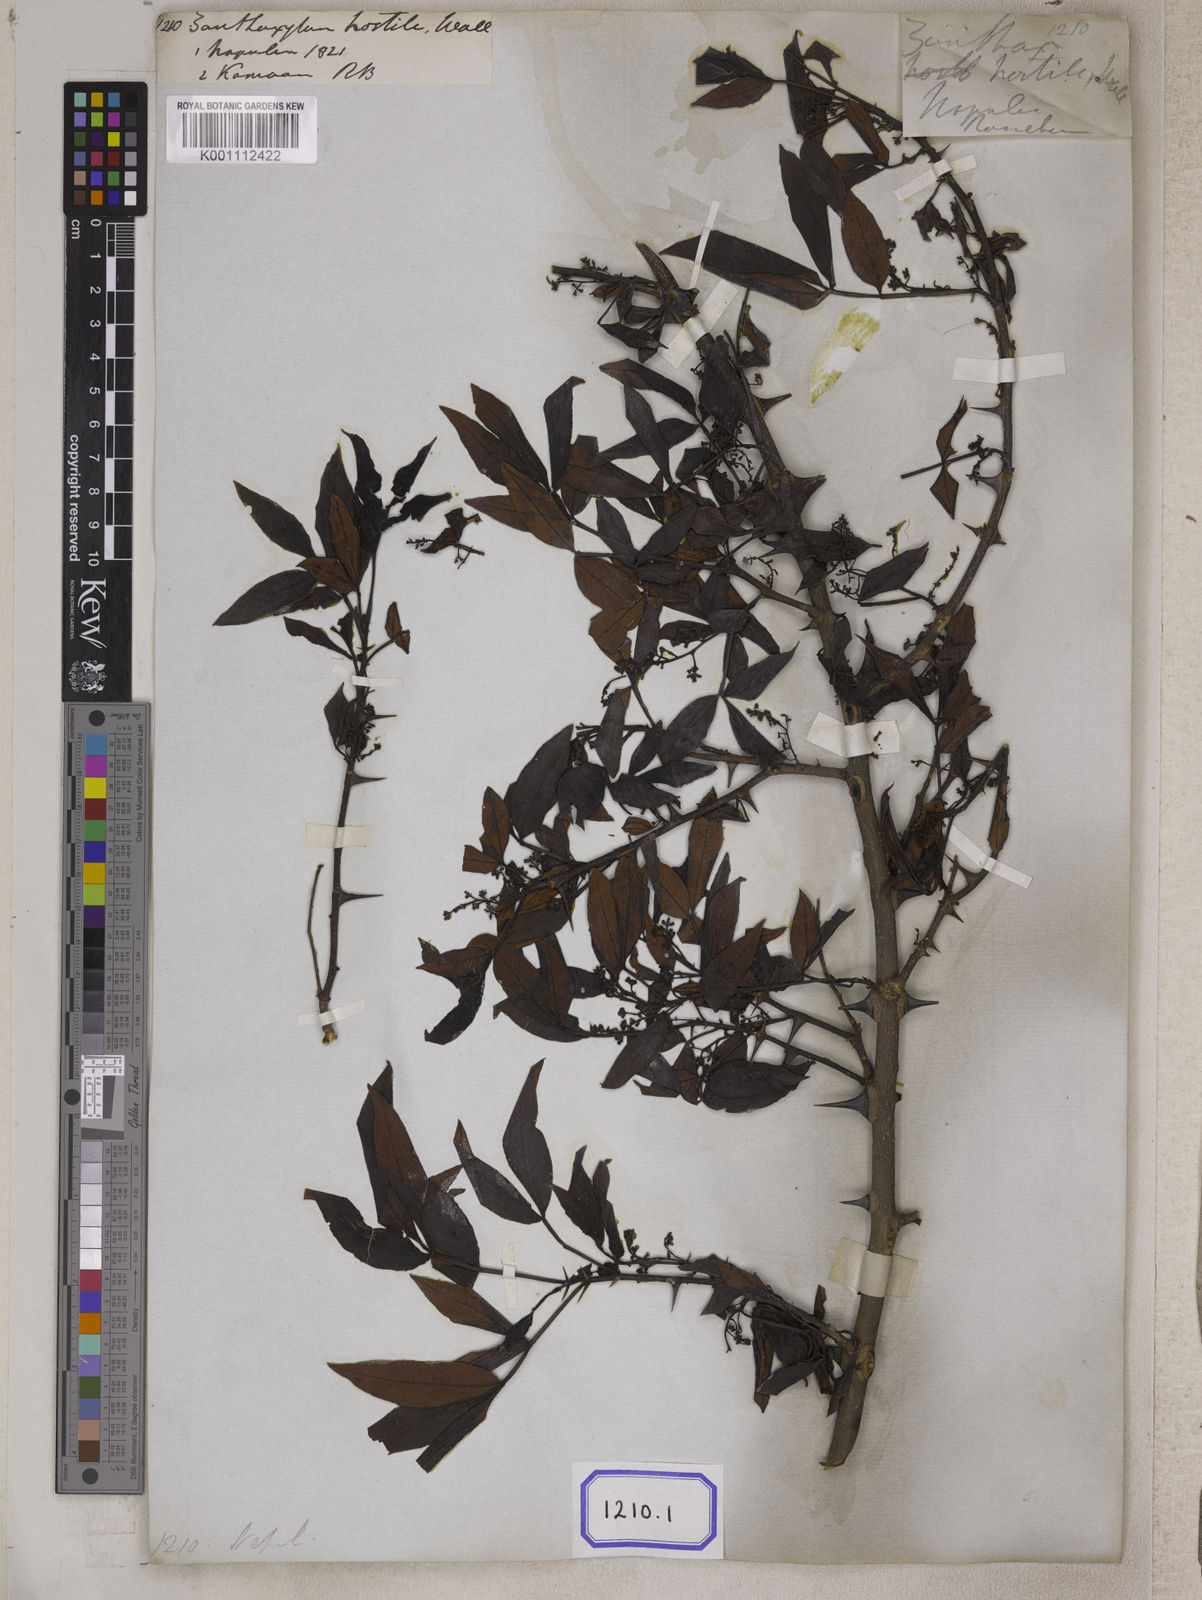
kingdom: Plantae
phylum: Tracheophyta
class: Magnoliopsida
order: Sapindales
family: Rutaceae
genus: Zanthoxylum
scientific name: Zanthoxylum armatum
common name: Winged prickly-ash
